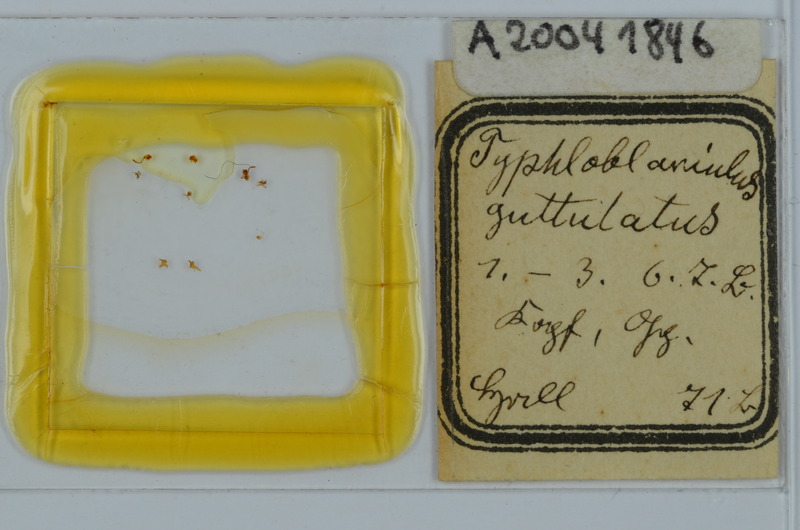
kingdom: Animalia
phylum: Arthropoda
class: Diplopoda
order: Julida
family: Blaniulidae
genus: Blaniulus
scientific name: Blaniulus guttulatus
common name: Spotted snake millipede
